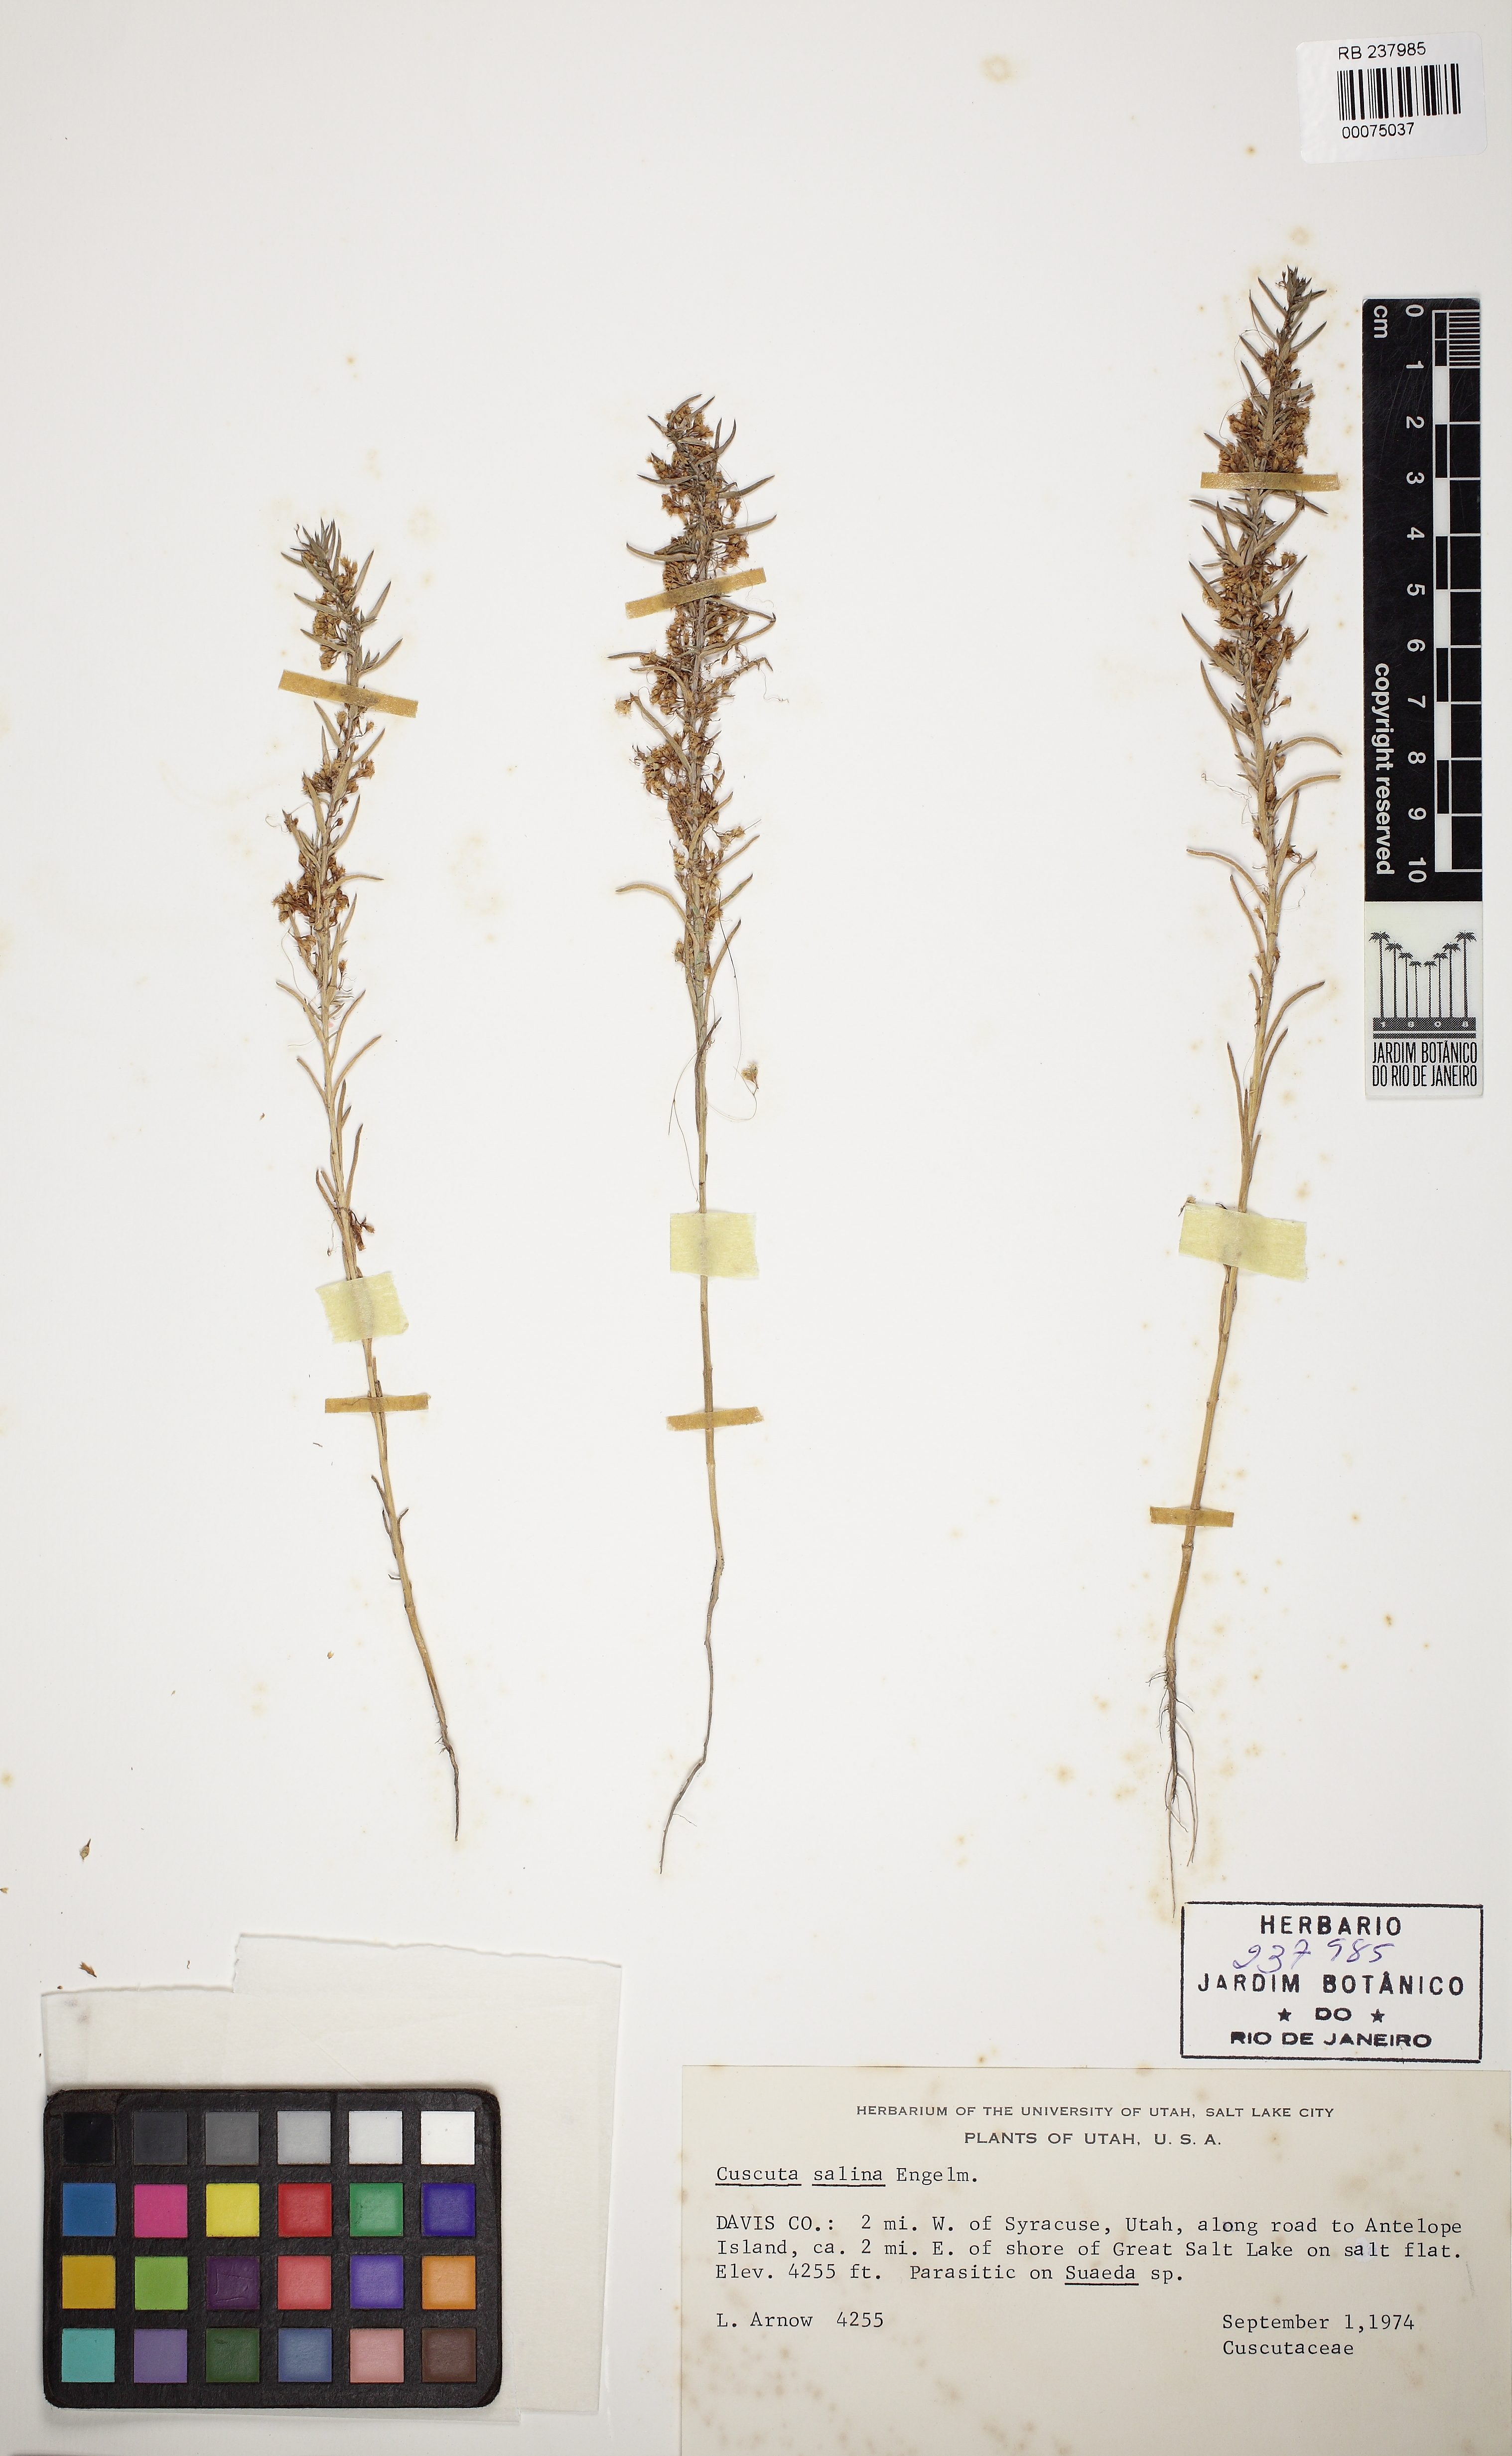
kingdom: Plantae
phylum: Tracheophyta
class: Magnoliopsida
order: Solanales
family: Convolvulaceae
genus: Cuscuta
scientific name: Cuscuta salina
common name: Goldenthread
